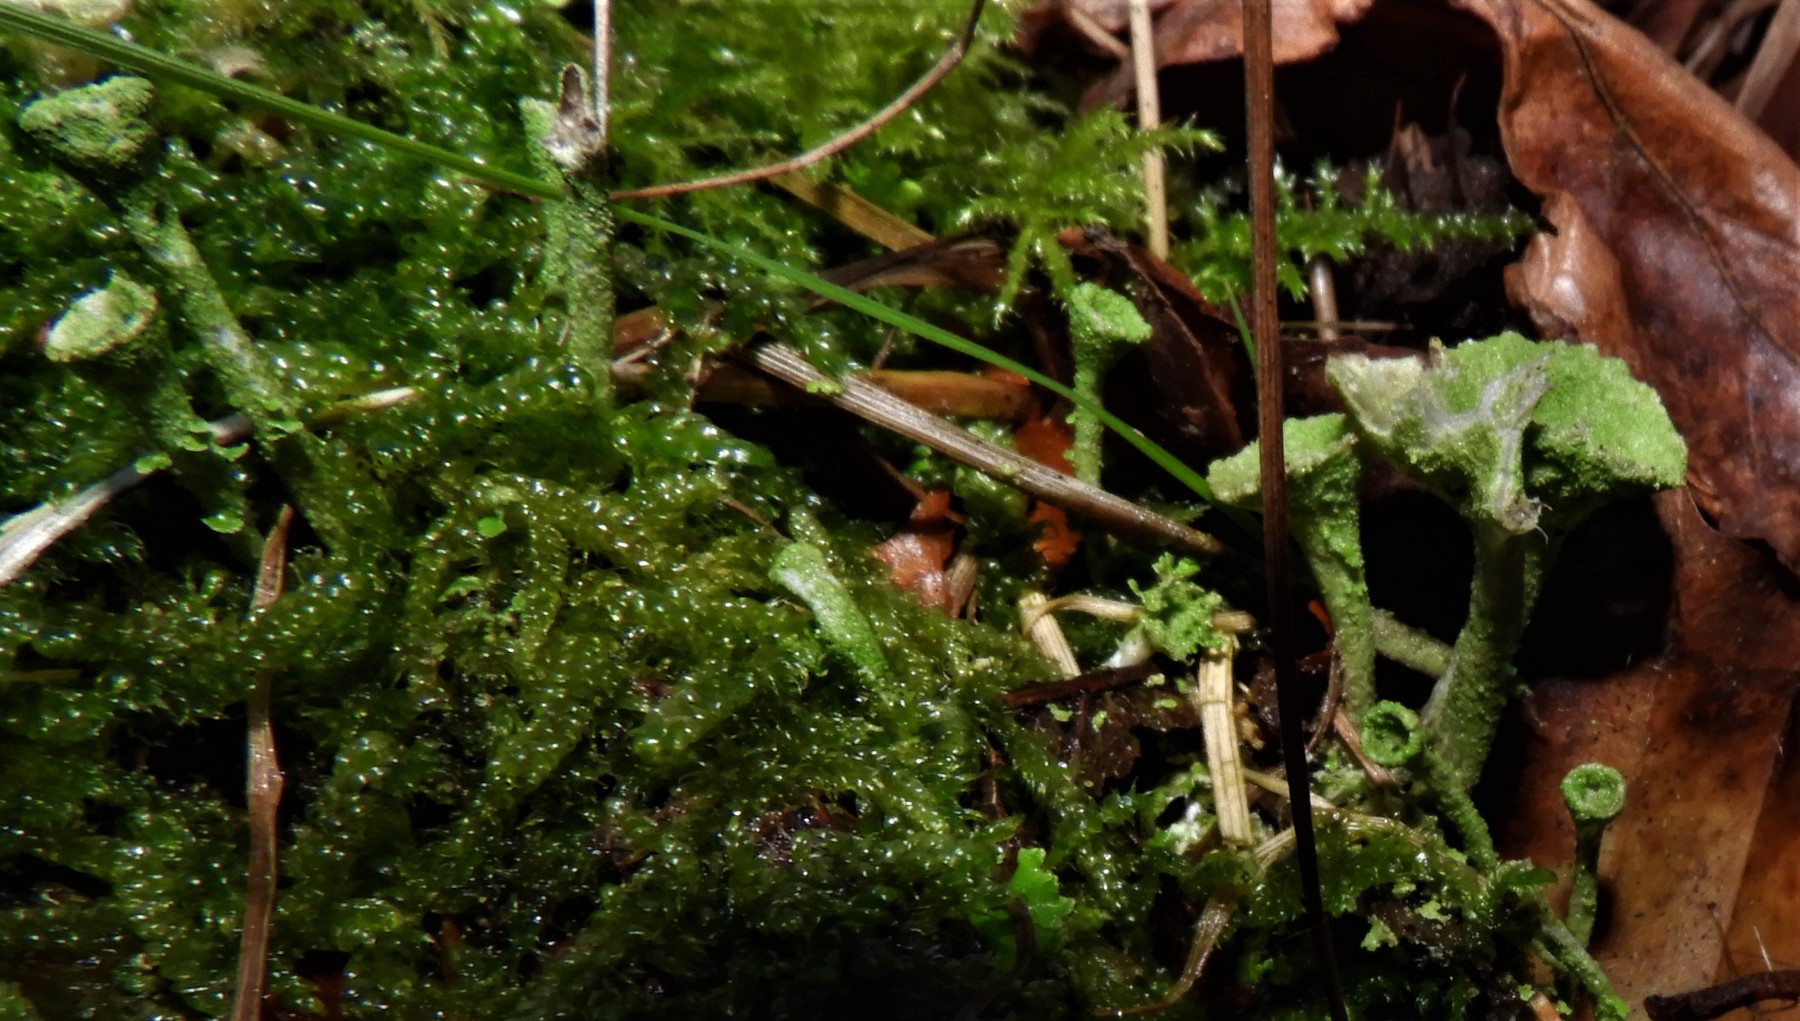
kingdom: Fungi
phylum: Ascomycota
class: Lecanoromycetes
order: Lecanorales
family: Cladoniaceae
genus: Cladonia
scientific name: Cladonia
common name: brungrøn bægerlav
